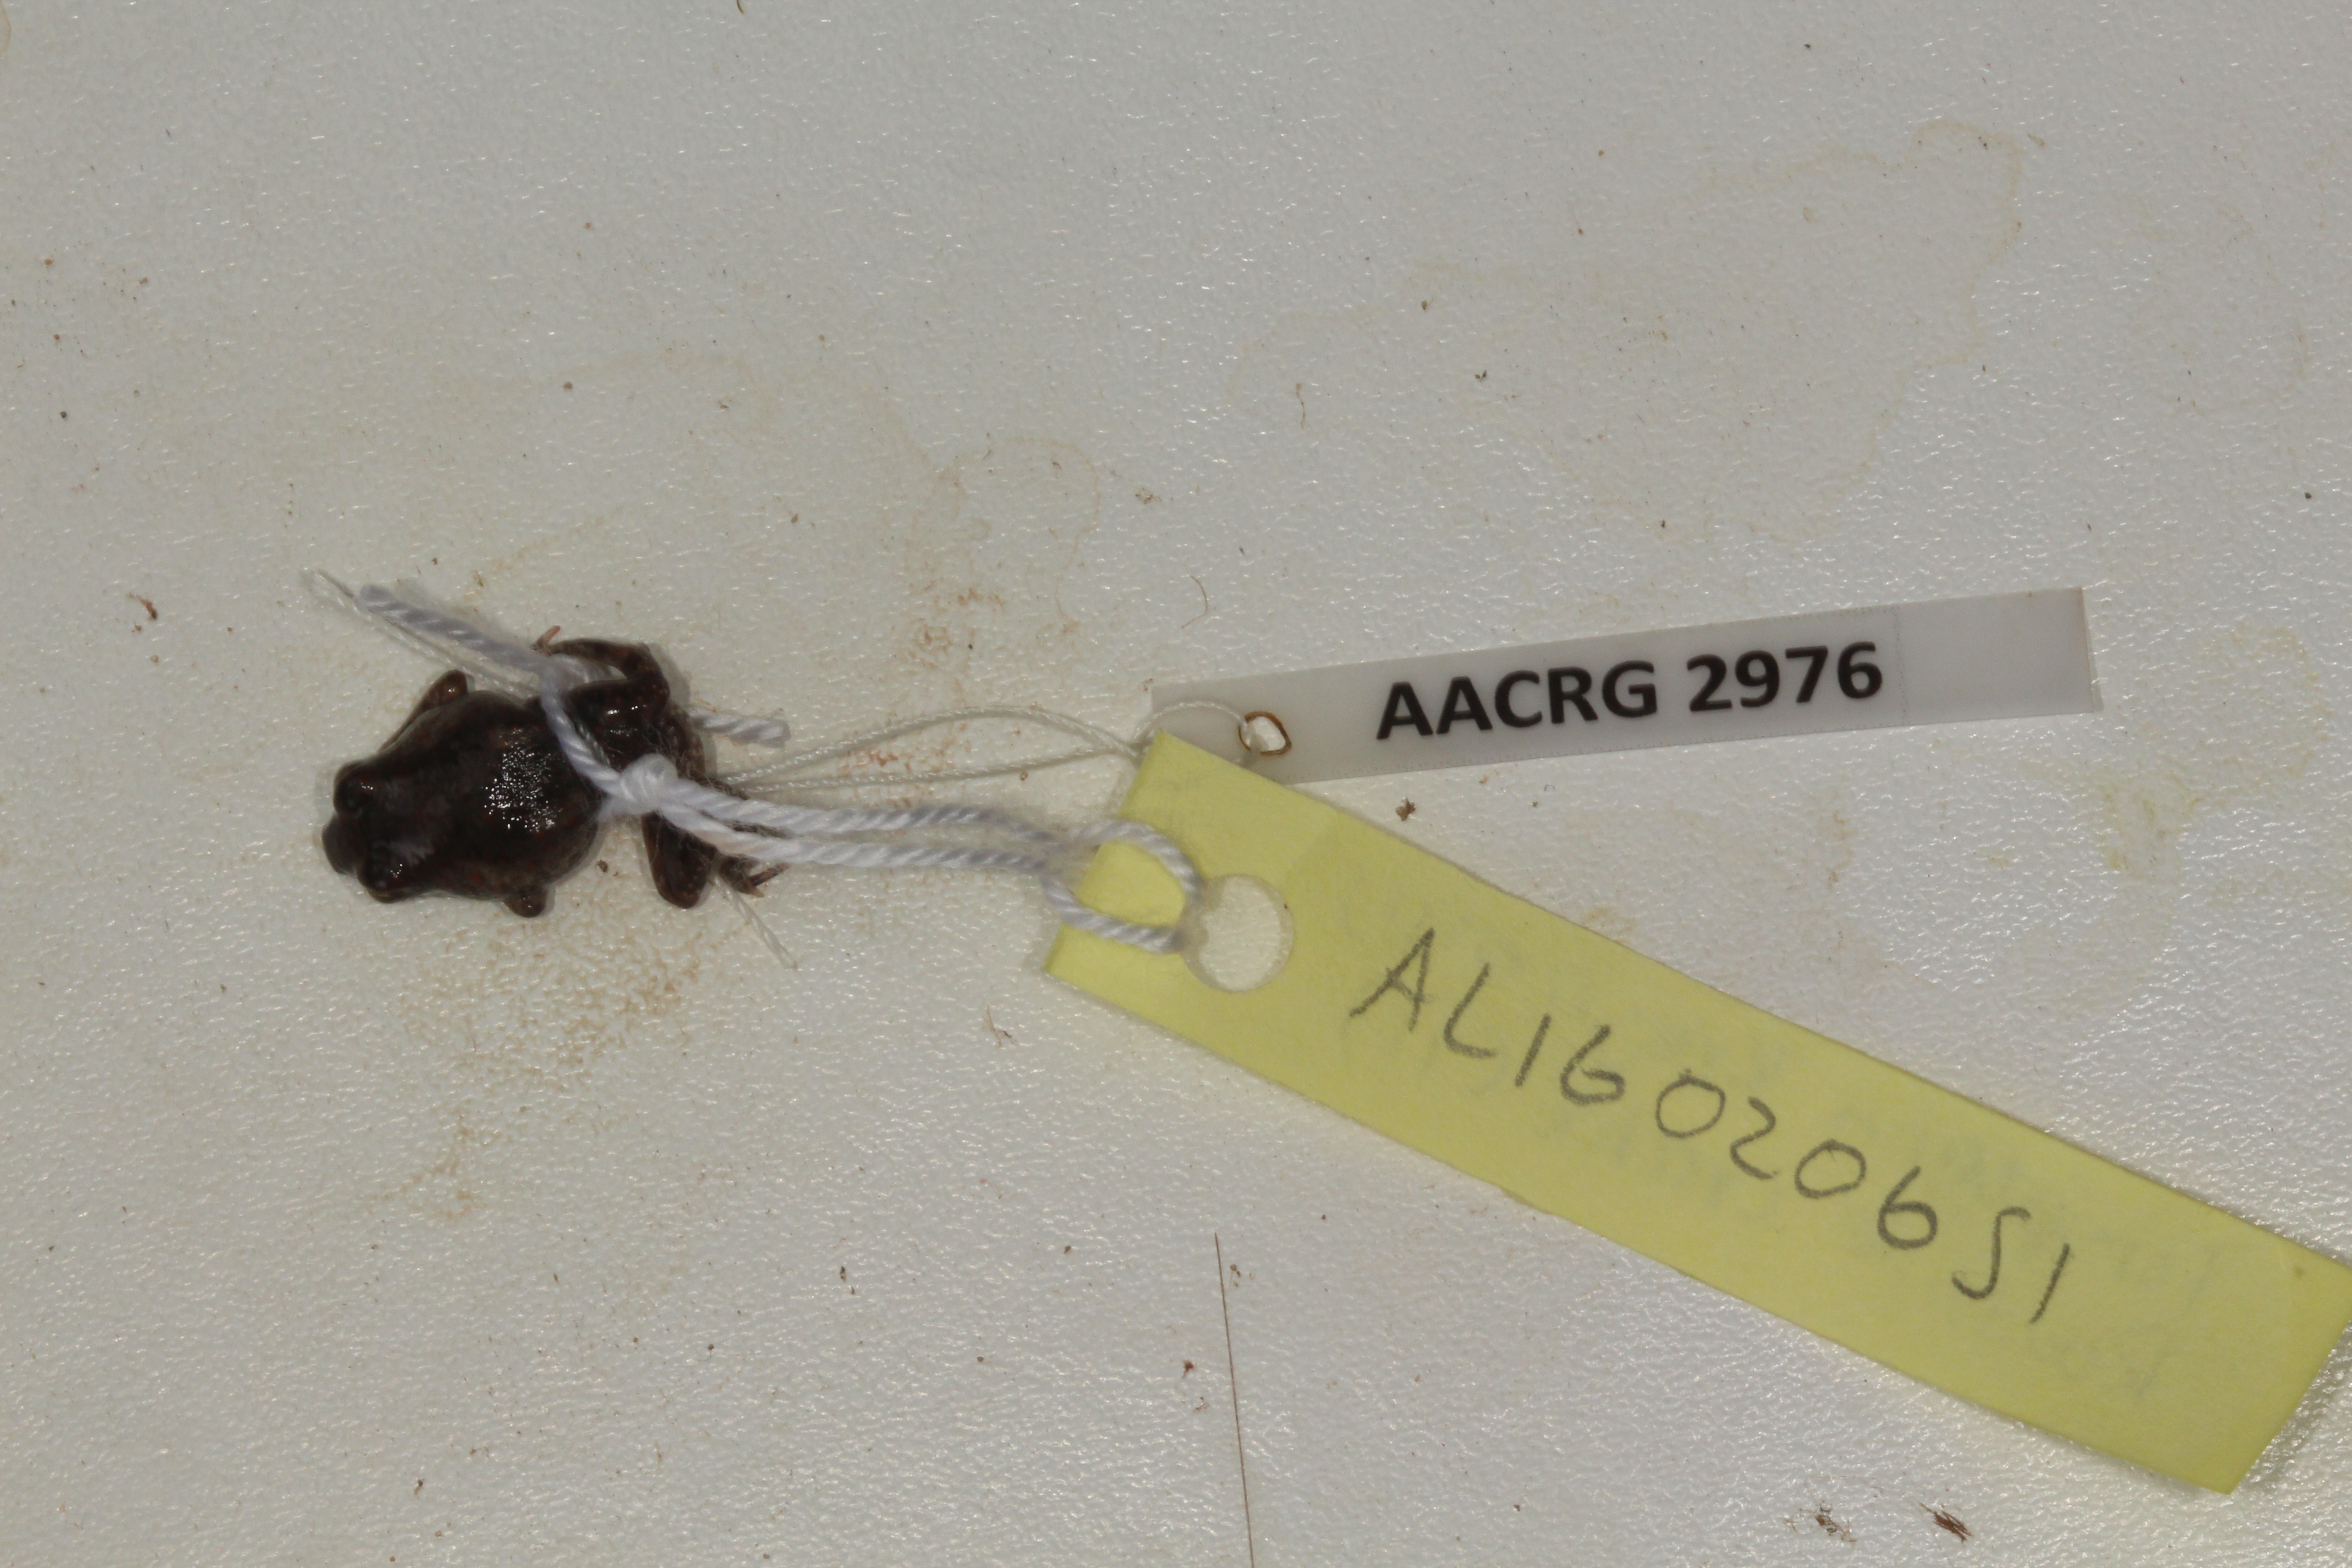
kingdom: Animalia
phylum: Chordata
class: Amphibia
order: Anura
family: Pyxicephalidae
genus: Tomopterna
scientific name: Tomopterna krugerensis
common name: Knocking sand frog
